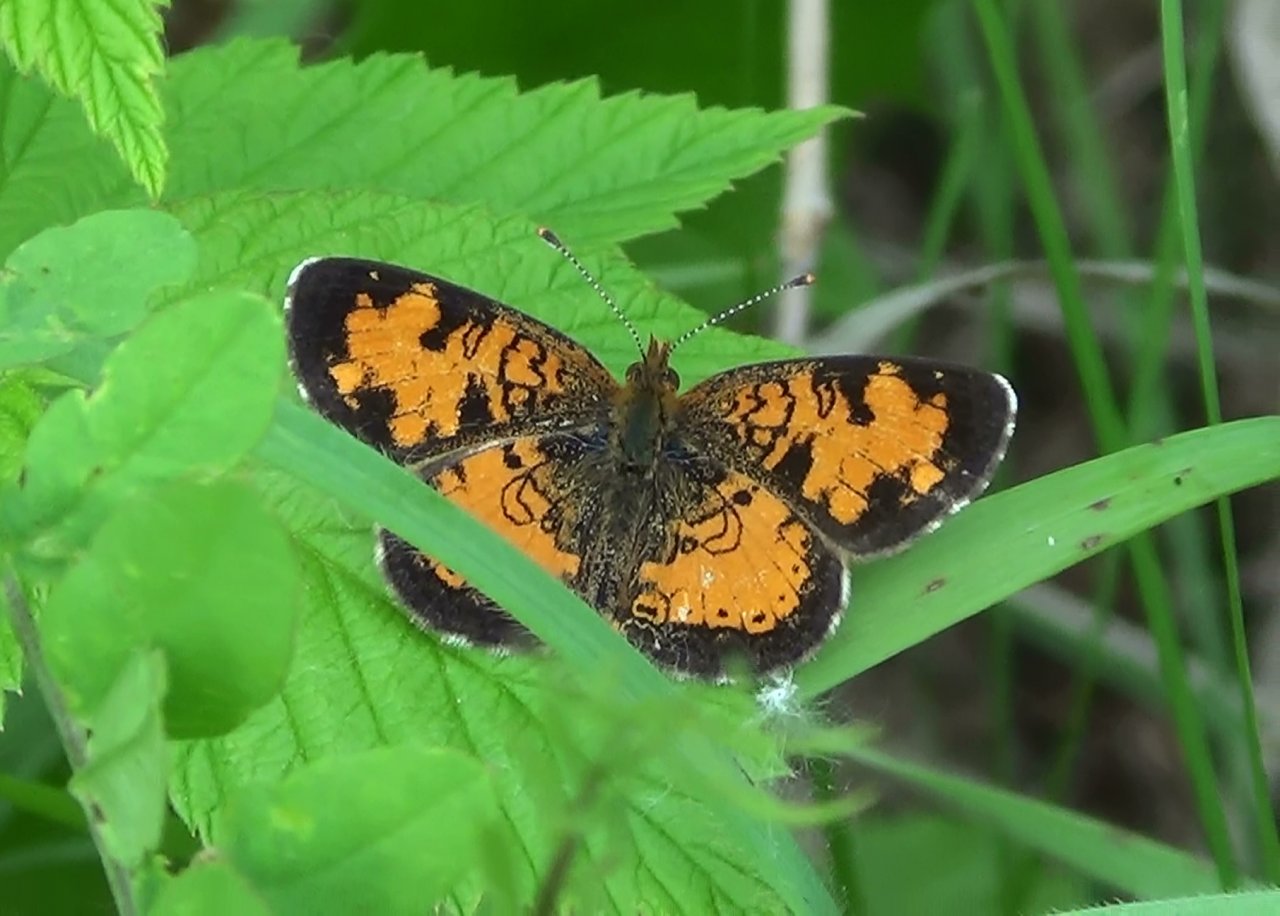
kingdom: Animalia
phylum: Arthropoda
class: Insecta
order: Lepidoptera
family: Nymphalidae
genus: Phyciodes
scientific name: Phyciodes tharos
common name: Northern Crescent
